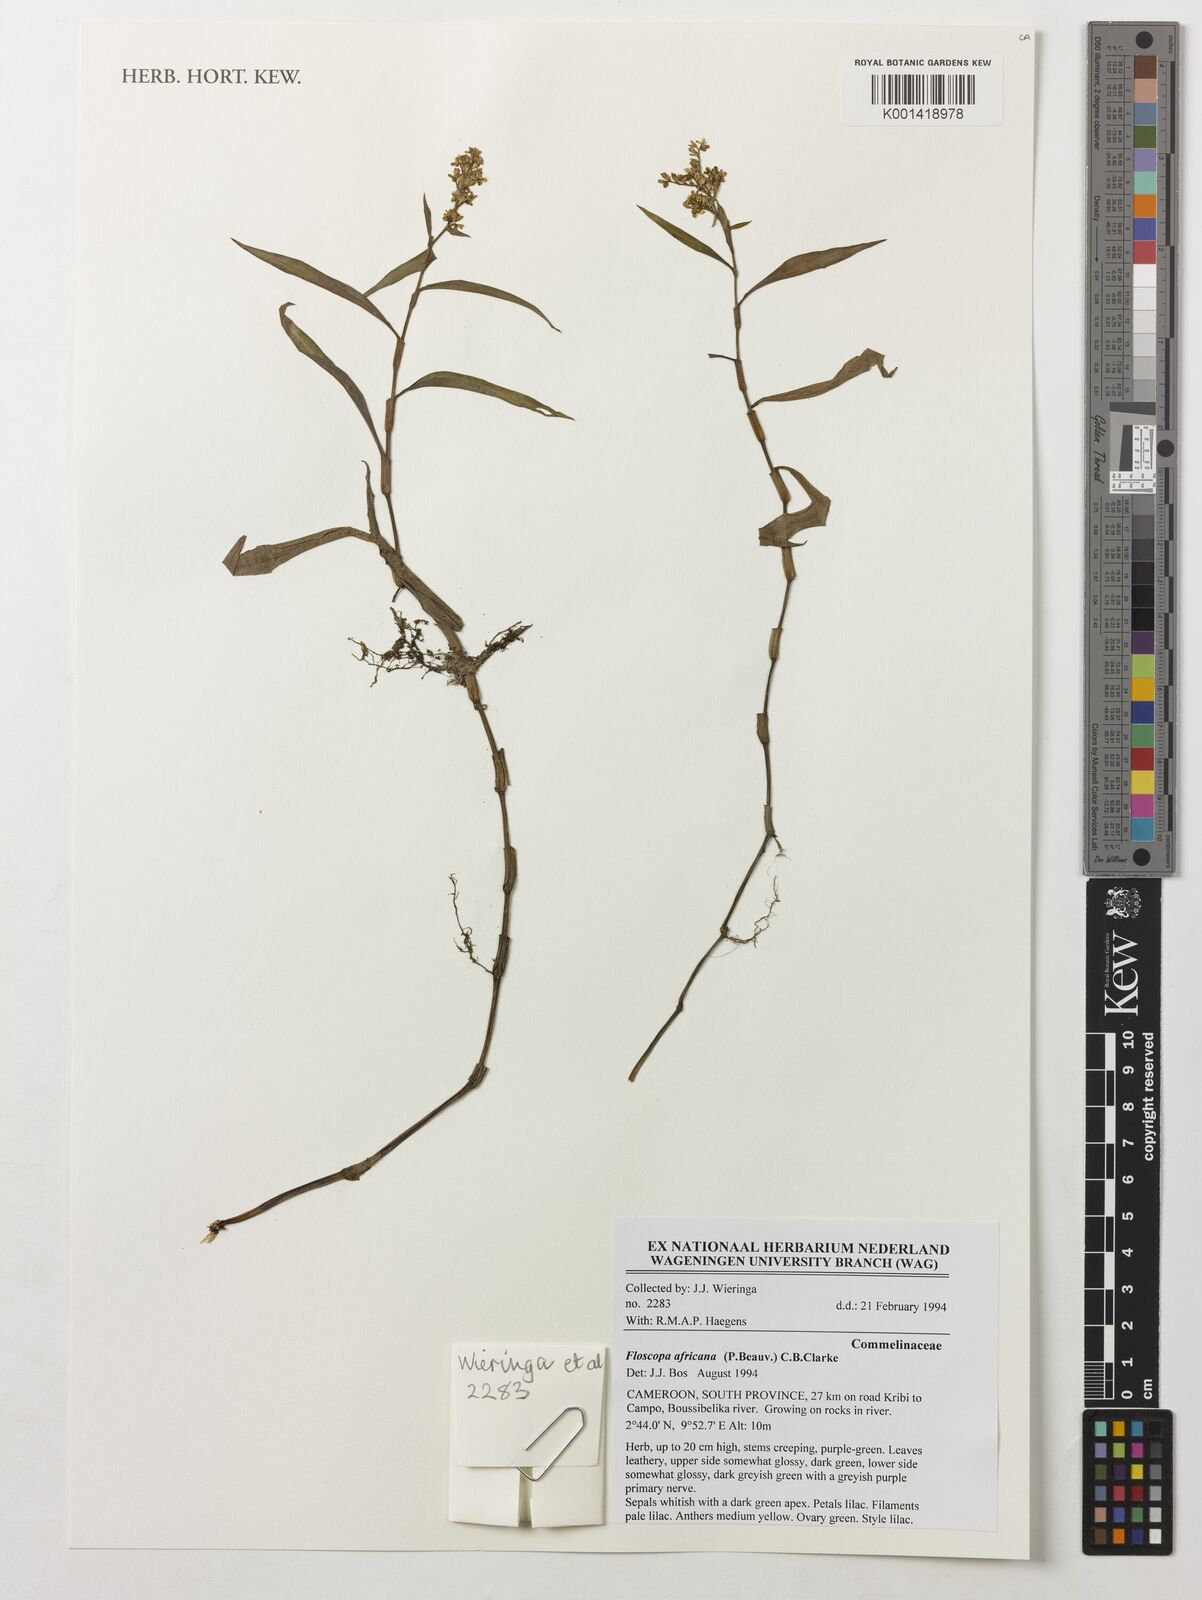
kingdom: Plantae
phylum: Tracheophyta
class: Liliopsida
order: Commelinales
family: Commelinaceae
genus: Floscopa
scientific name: Floscopa africana
